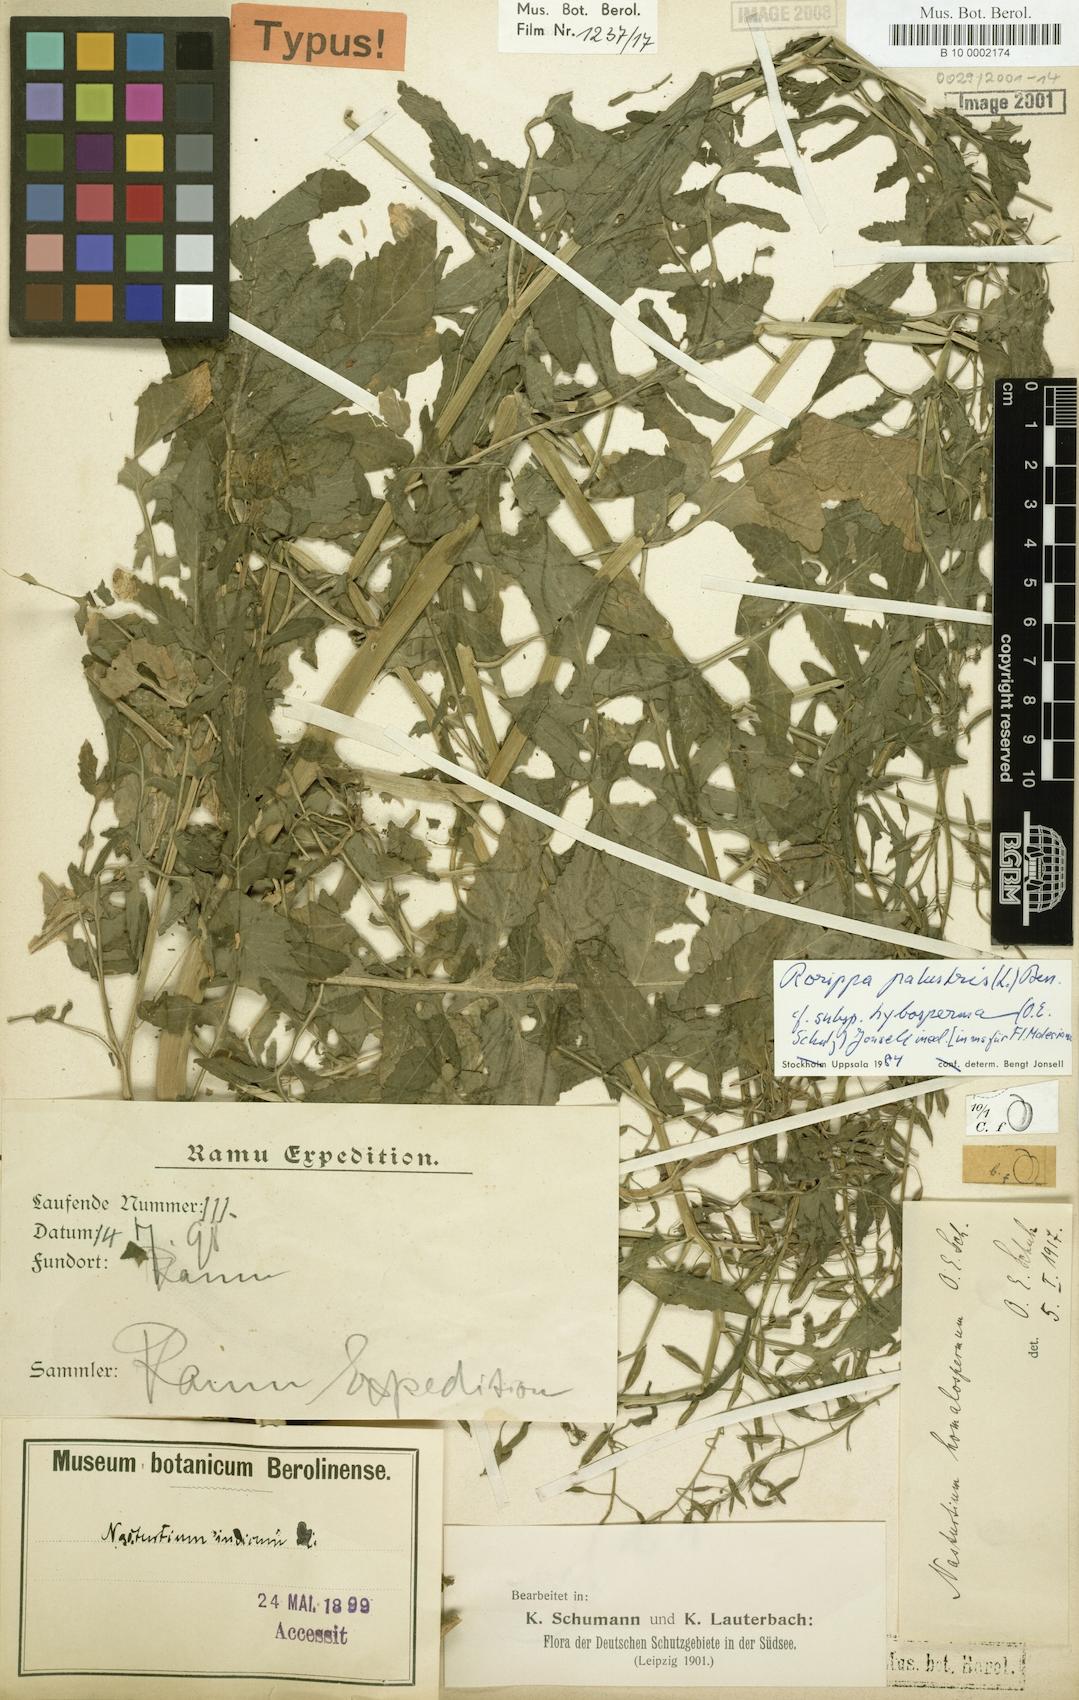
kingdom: Plantae
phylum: Tracheophyta
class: Magnoliopsida
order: Brassicales
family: Brassicaceae
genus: Rorippa
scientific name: Rorippa palustris
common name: Marsh yellow-cress
